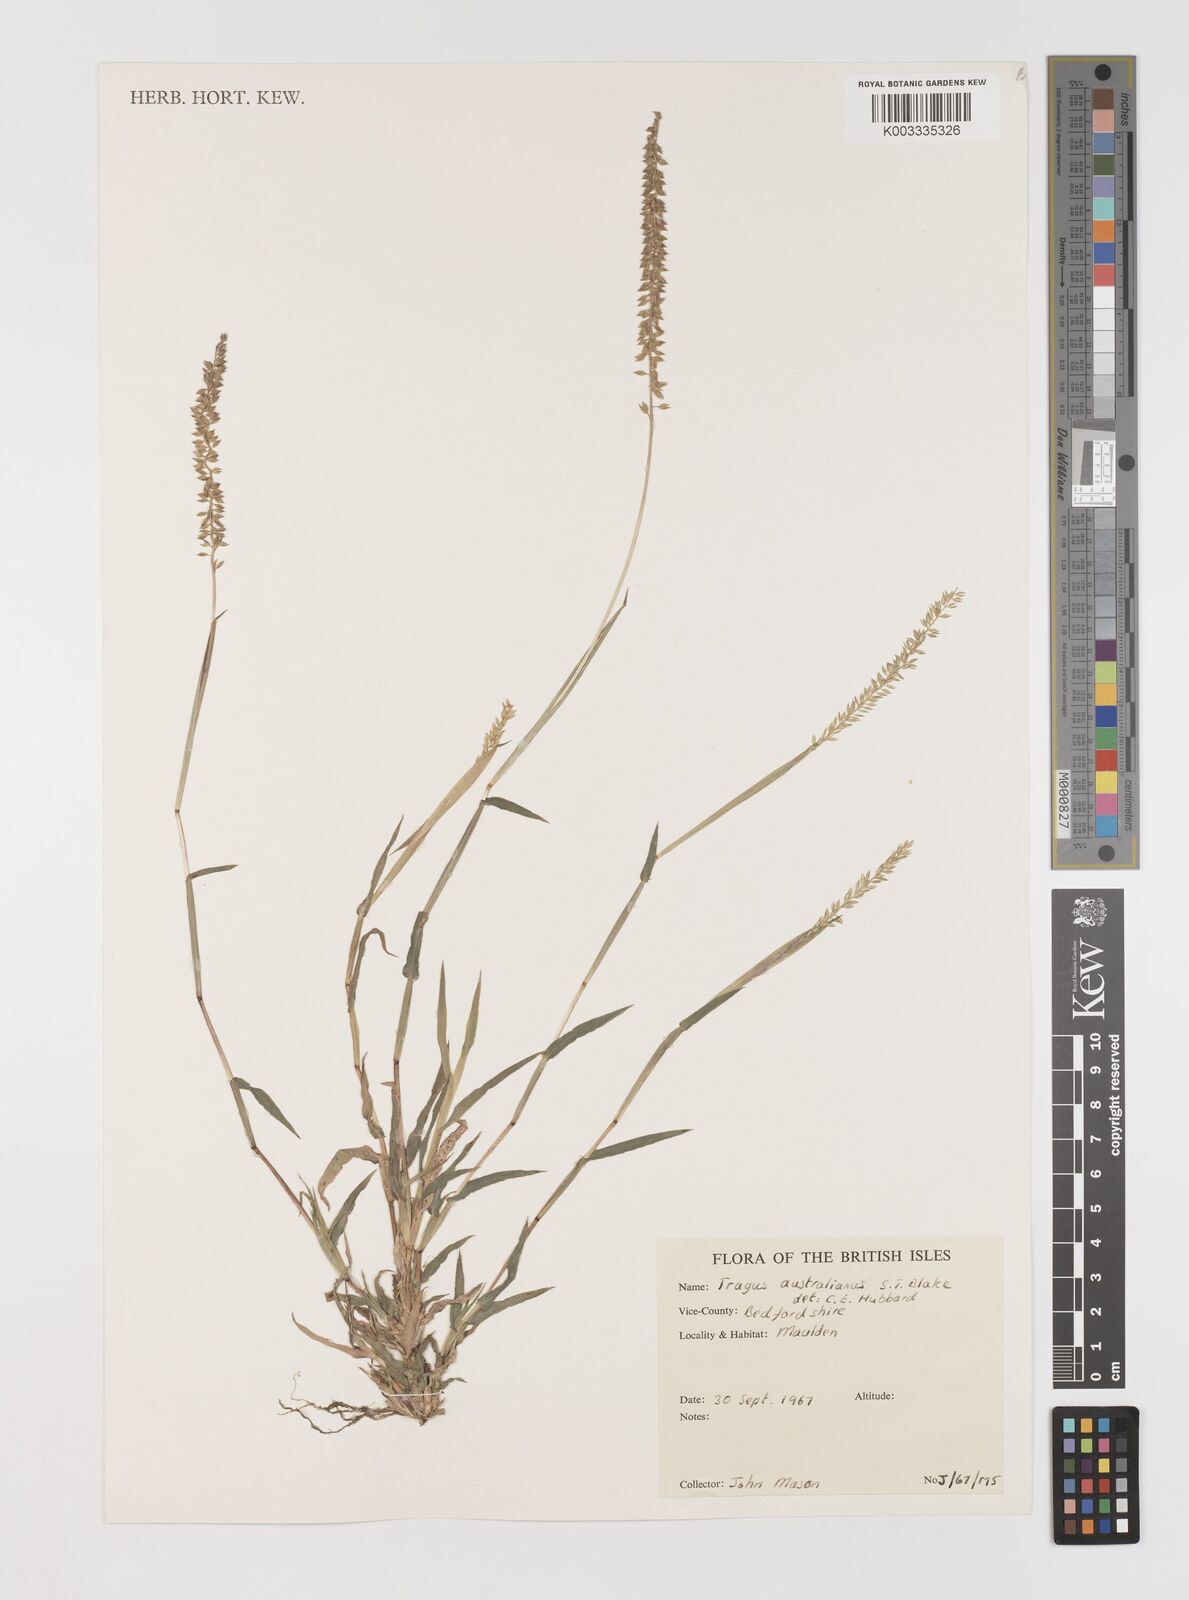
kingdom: Plantae
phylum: Tracheophyta
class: Liliopsida
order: Poales
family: Poaceae
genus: Tragus
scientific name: Tragus racemosus
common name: European bur-grass
